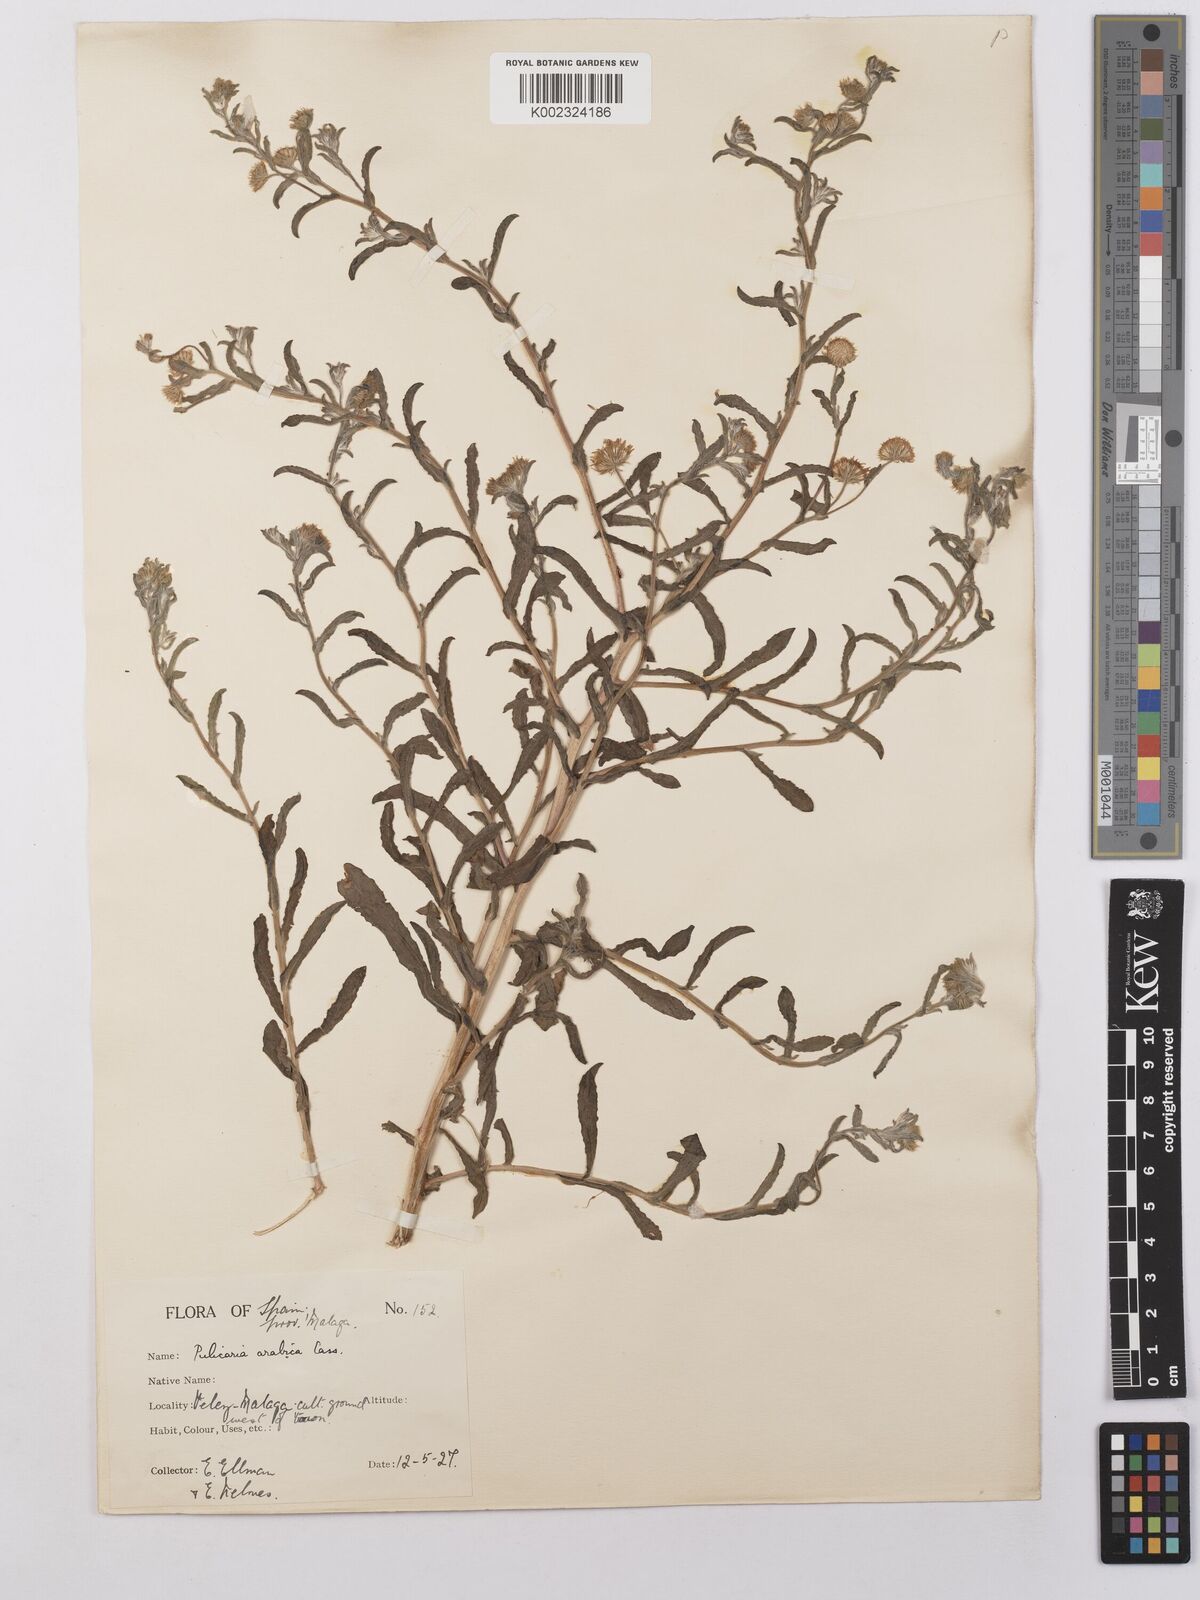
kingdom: Plantae
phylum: Tracheophyta
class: Magnoliopsida
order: Asterales
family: Asteraceae
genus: Pulicaria
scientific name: Pulicaria arabica
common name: Ladies' false fleabane
